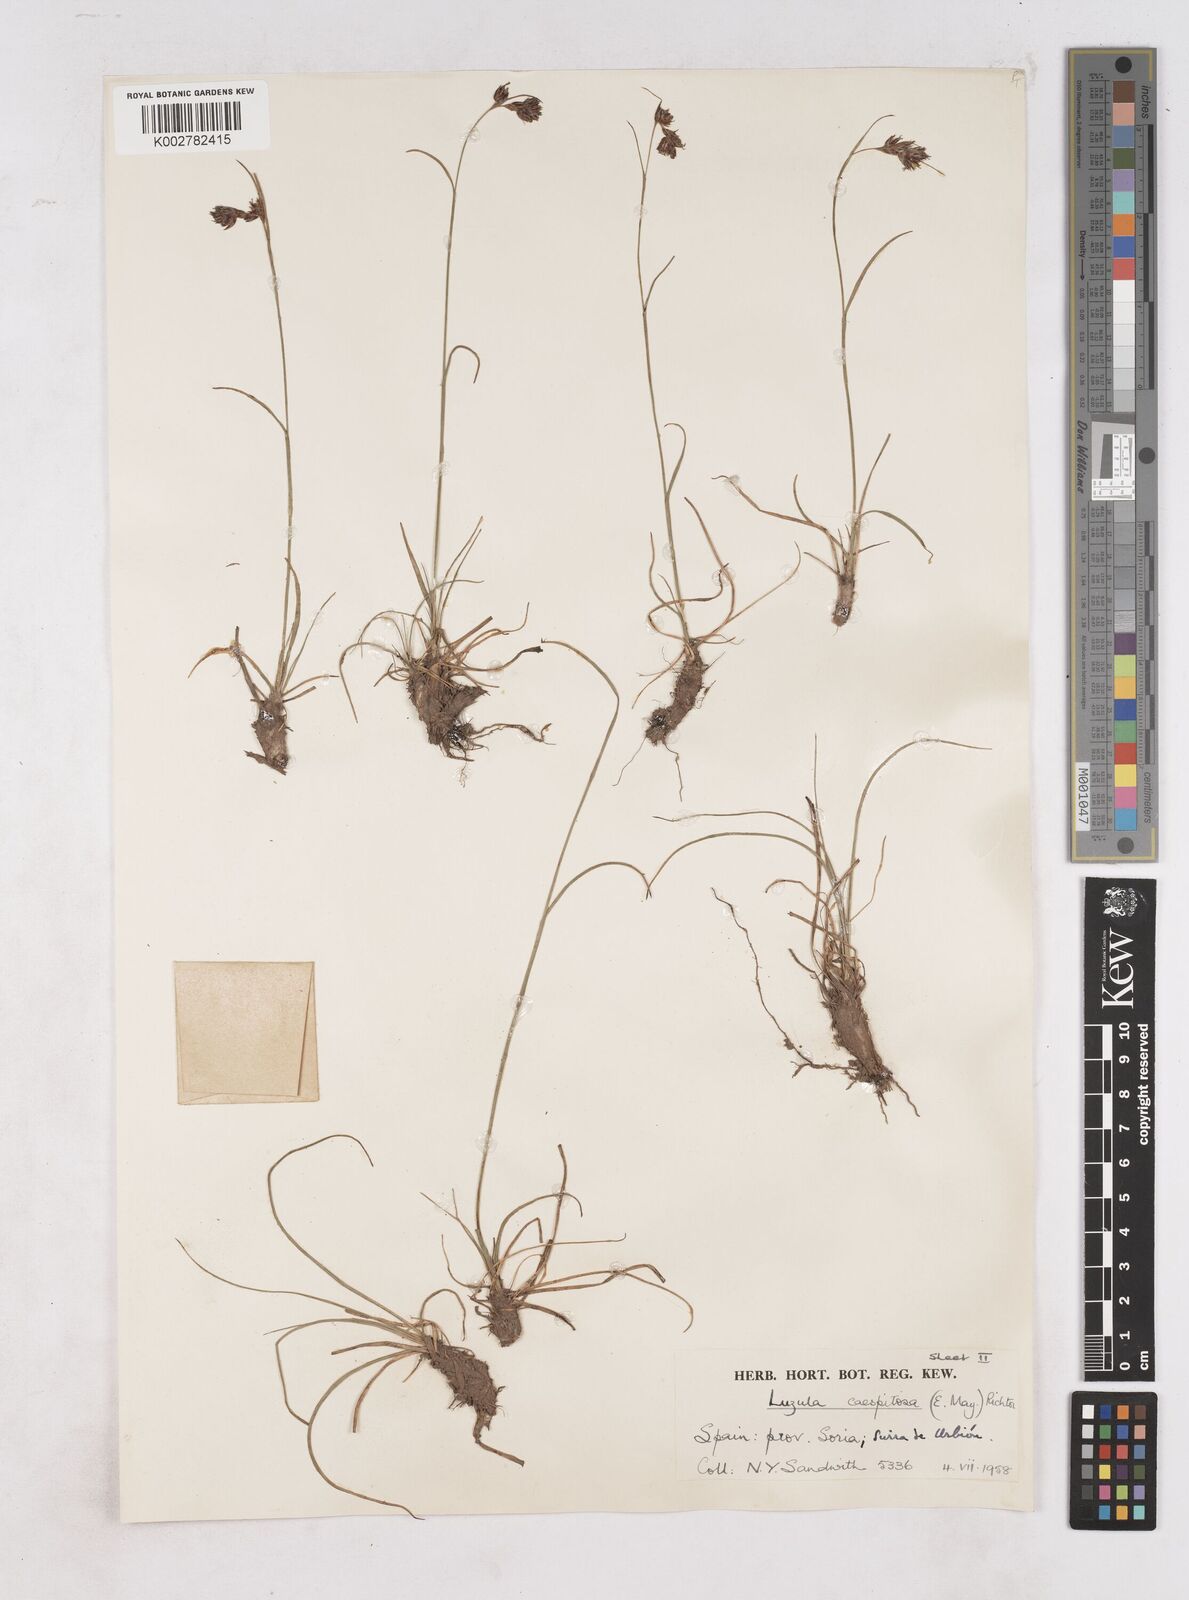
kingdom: Plantae
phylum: Tracheophyta
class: Liliopsida
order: Poales
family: Juncaceae
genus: Luzula
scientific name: Luzula caespitosa
